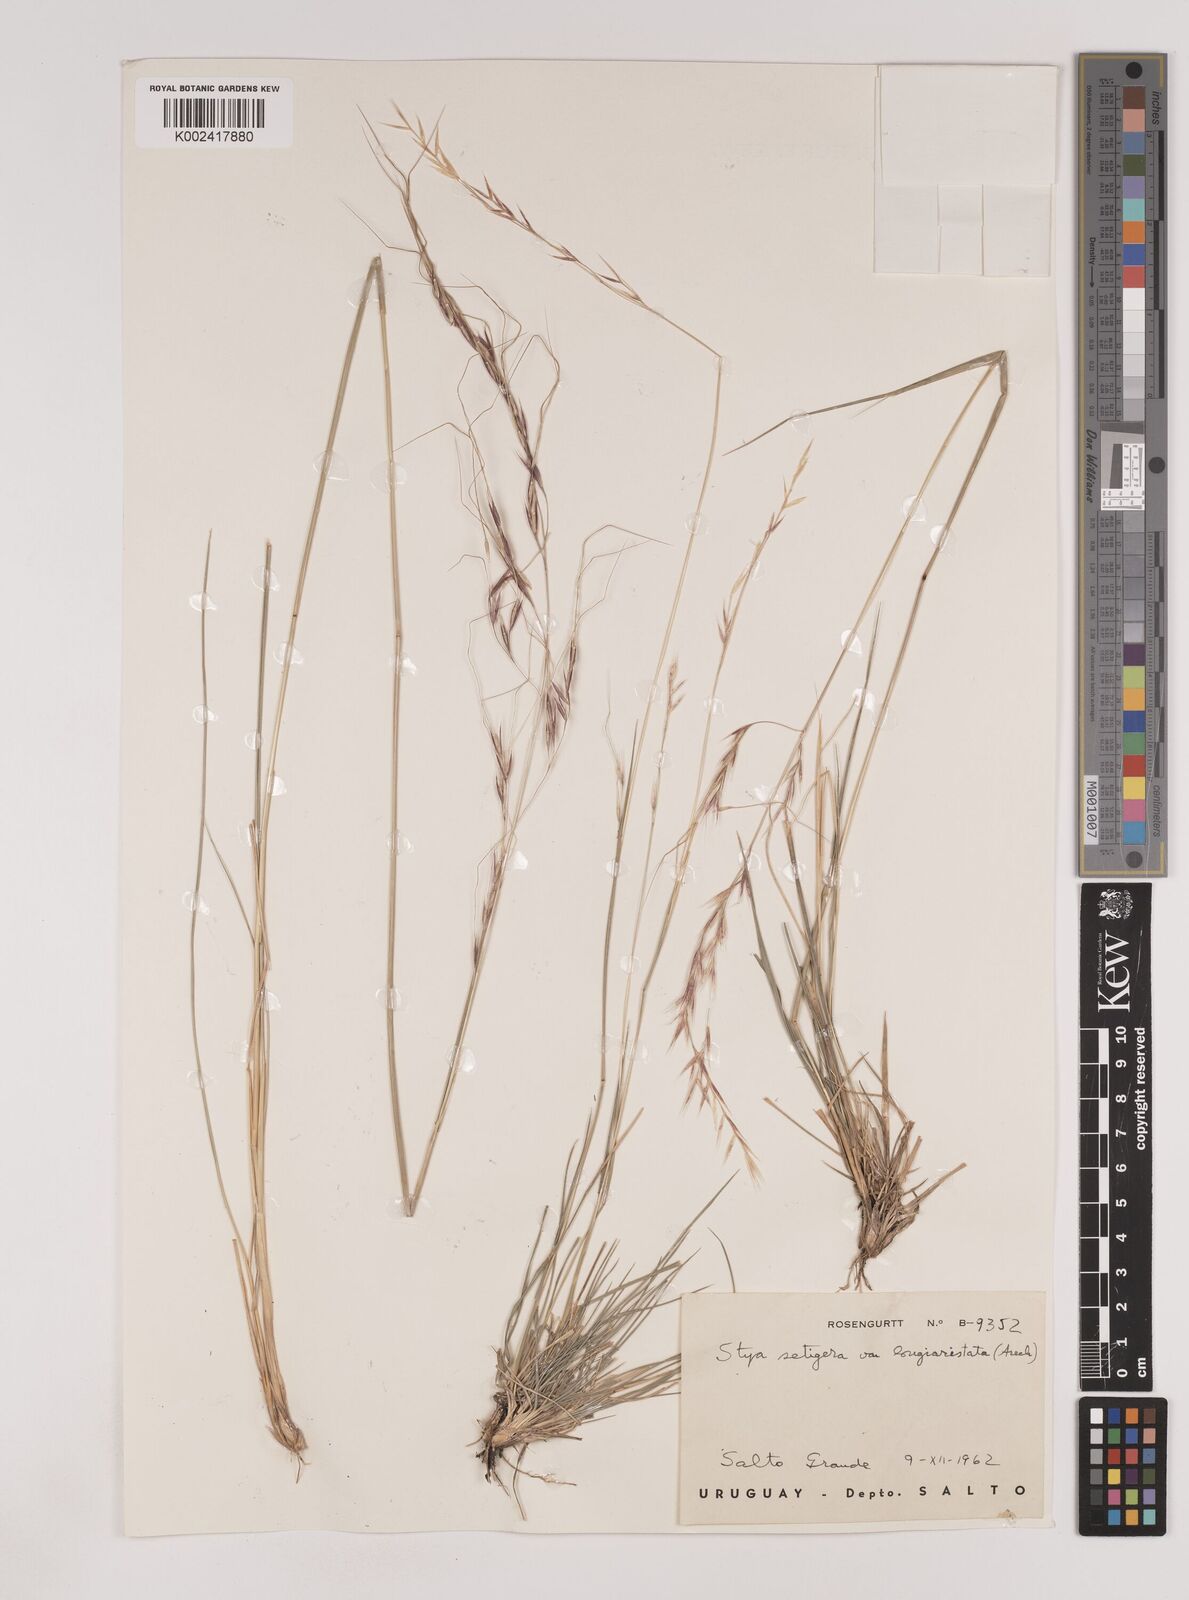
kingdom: Plantae
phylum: Tracheophyta
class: Liliopsida
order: Poales
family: Poaceae
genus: Nassella
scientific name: Nassella neesiana
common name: American needle-grass
